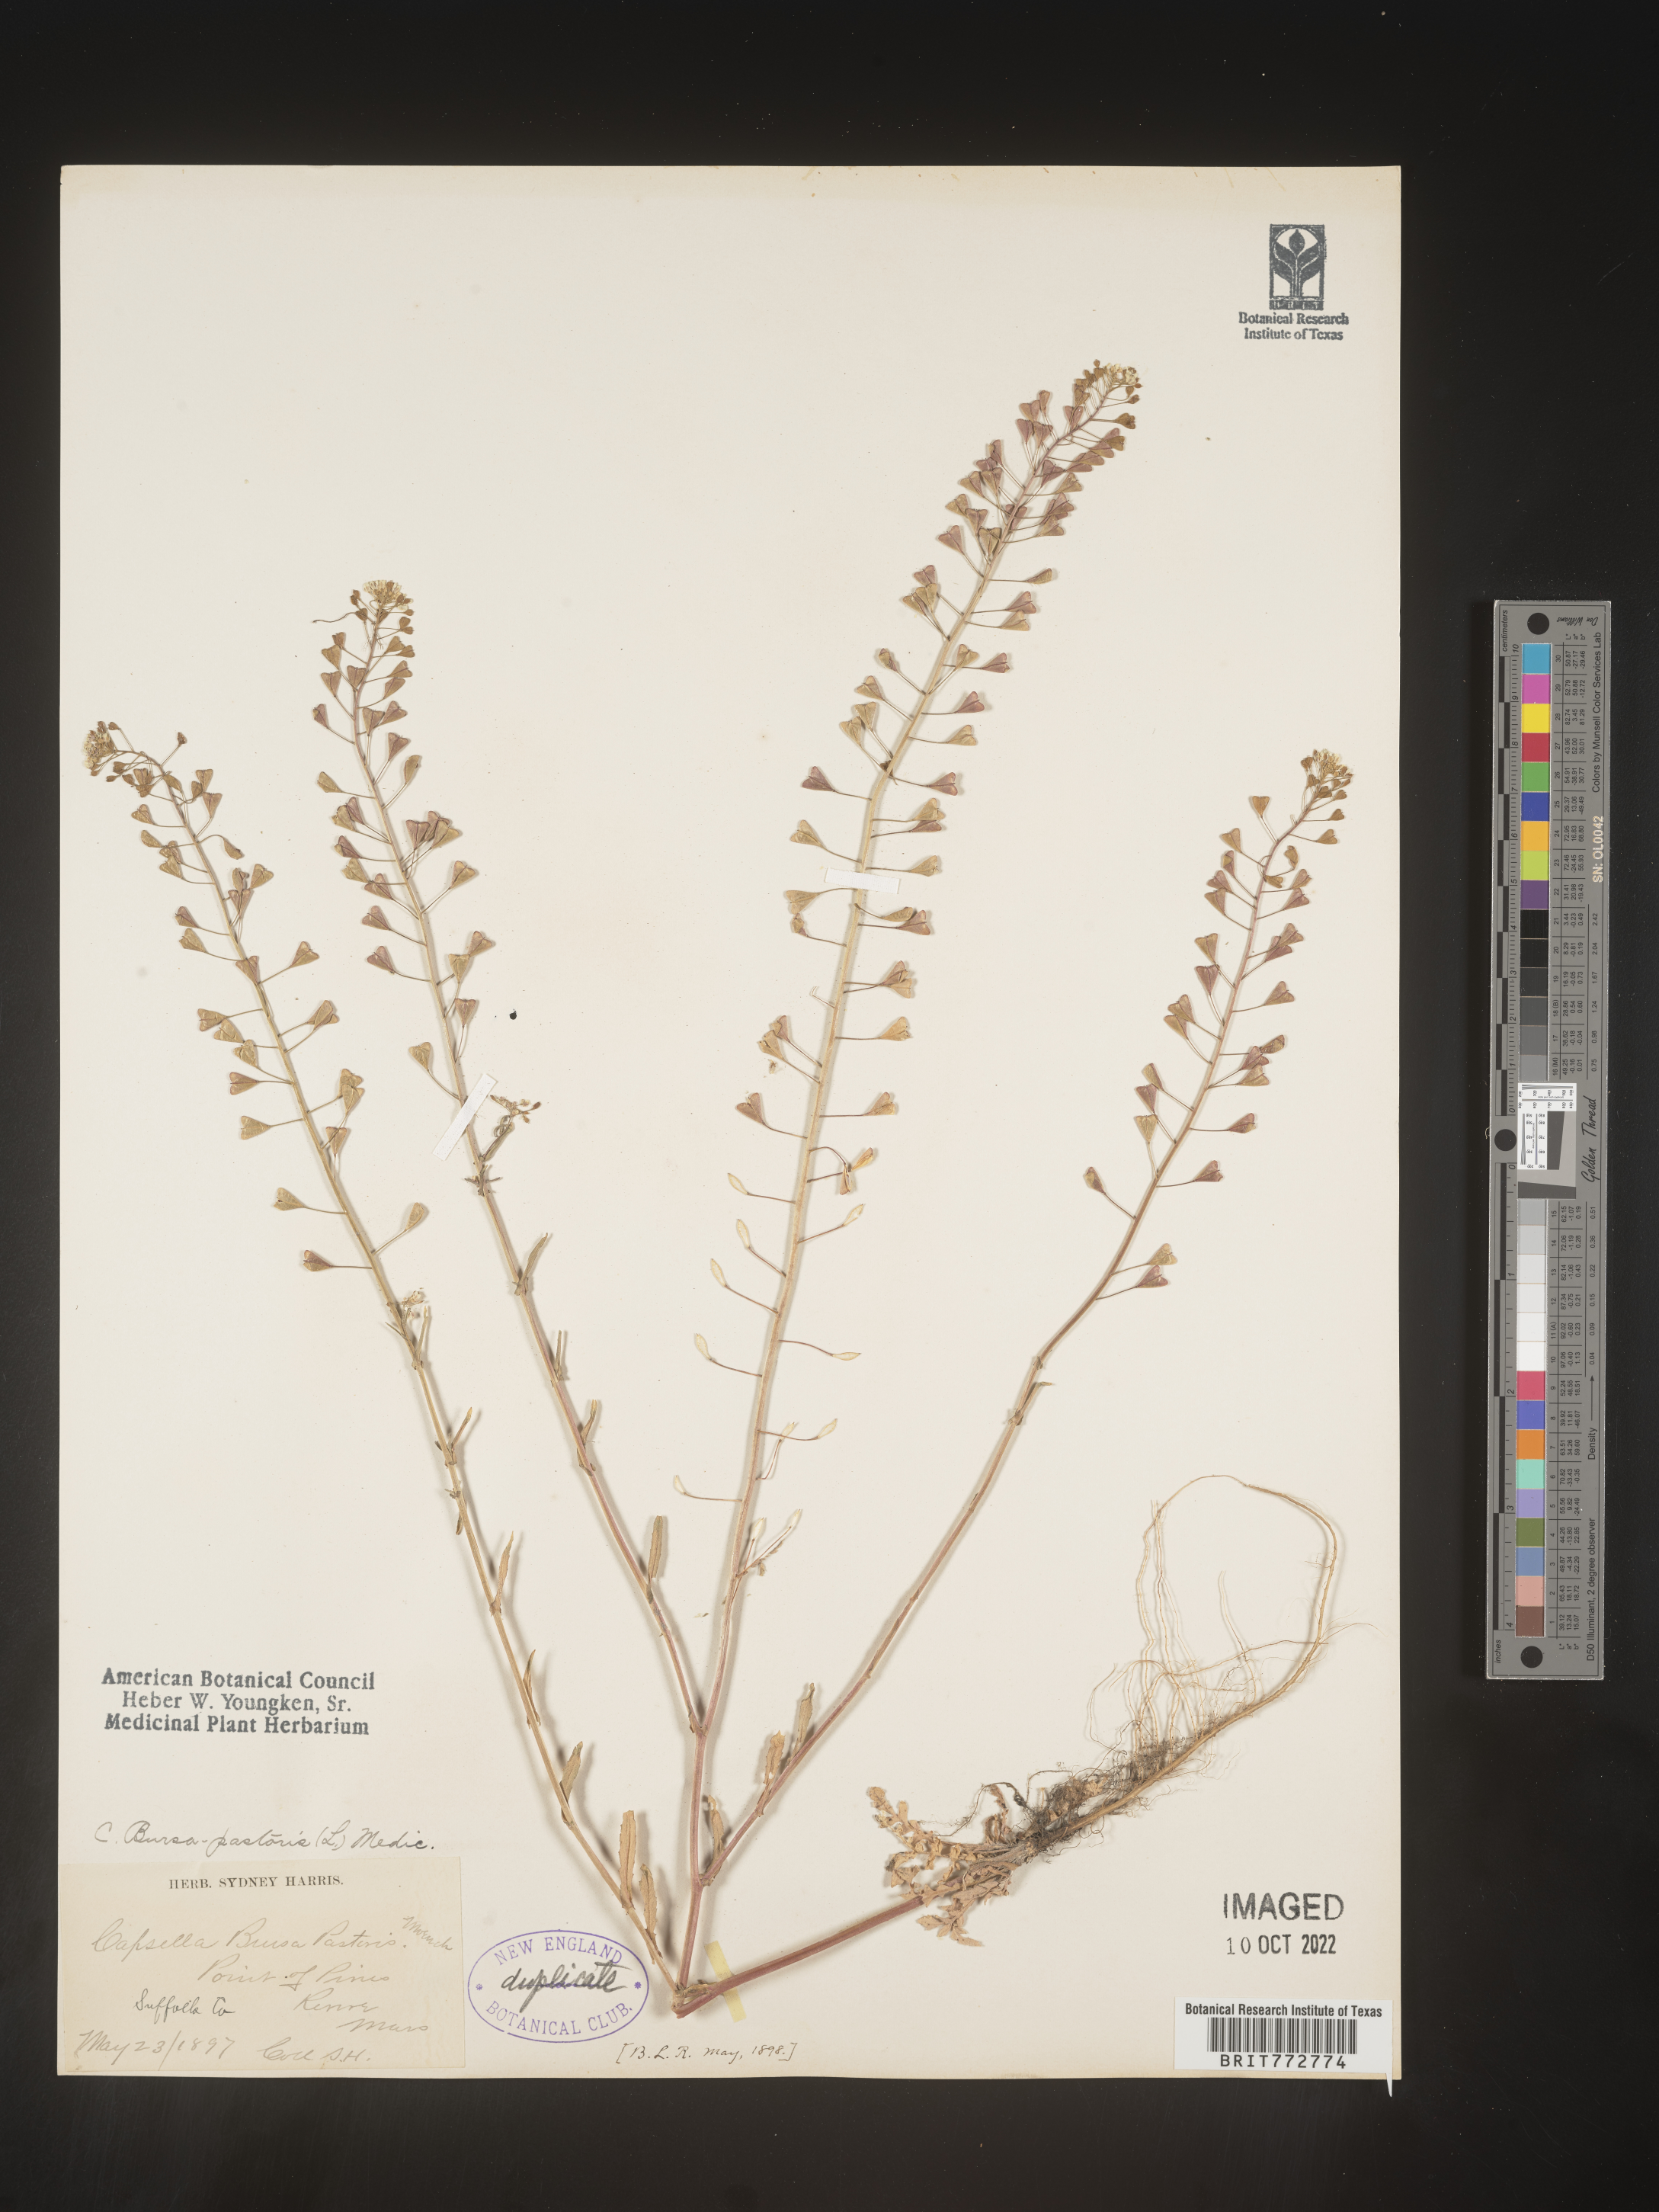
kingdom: Plantae
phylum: Tracheophyta
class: Magnoliopsida
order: Brassicales
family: Brassicaceae
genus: Capsella
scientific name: Capsella bursa-pastoris
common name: Shepherd's purse
